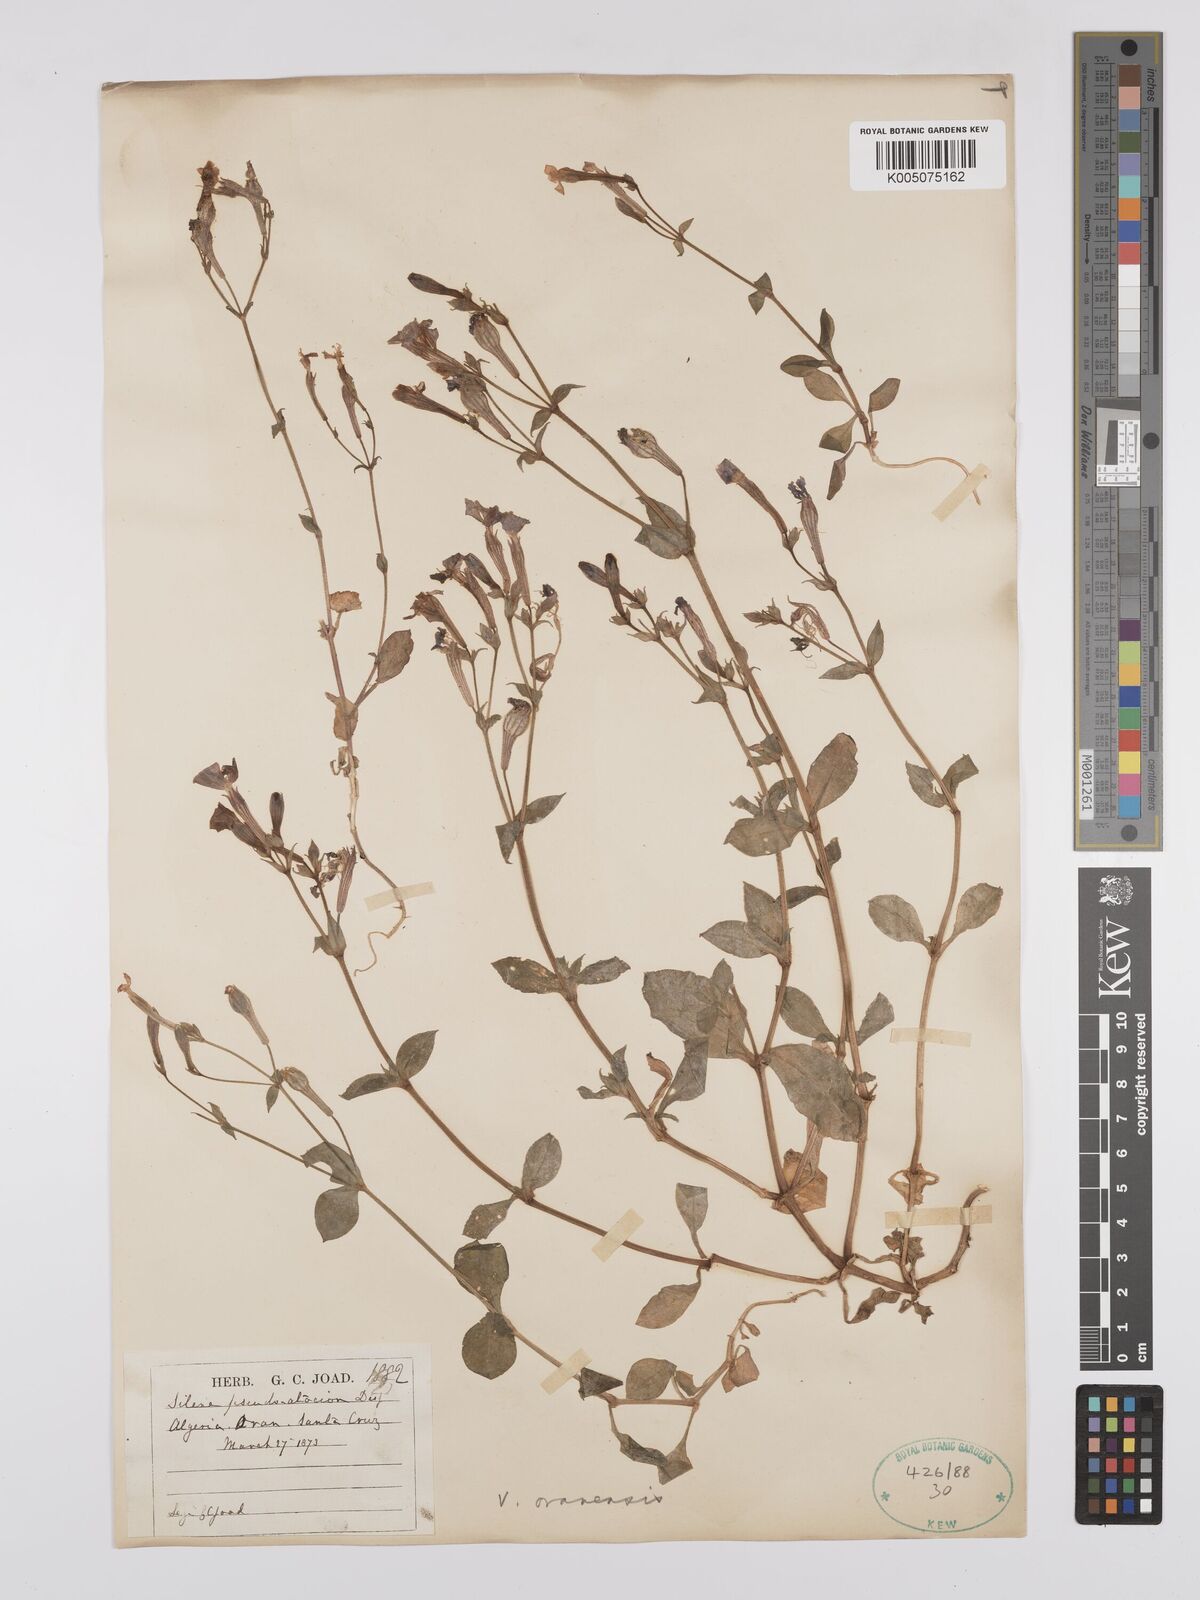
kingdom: Plantae
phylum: Tracheophyta
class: Magnoliopsida
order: Caryophyllales
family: Caryophyllaceae
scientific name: Caryophyllaceae
